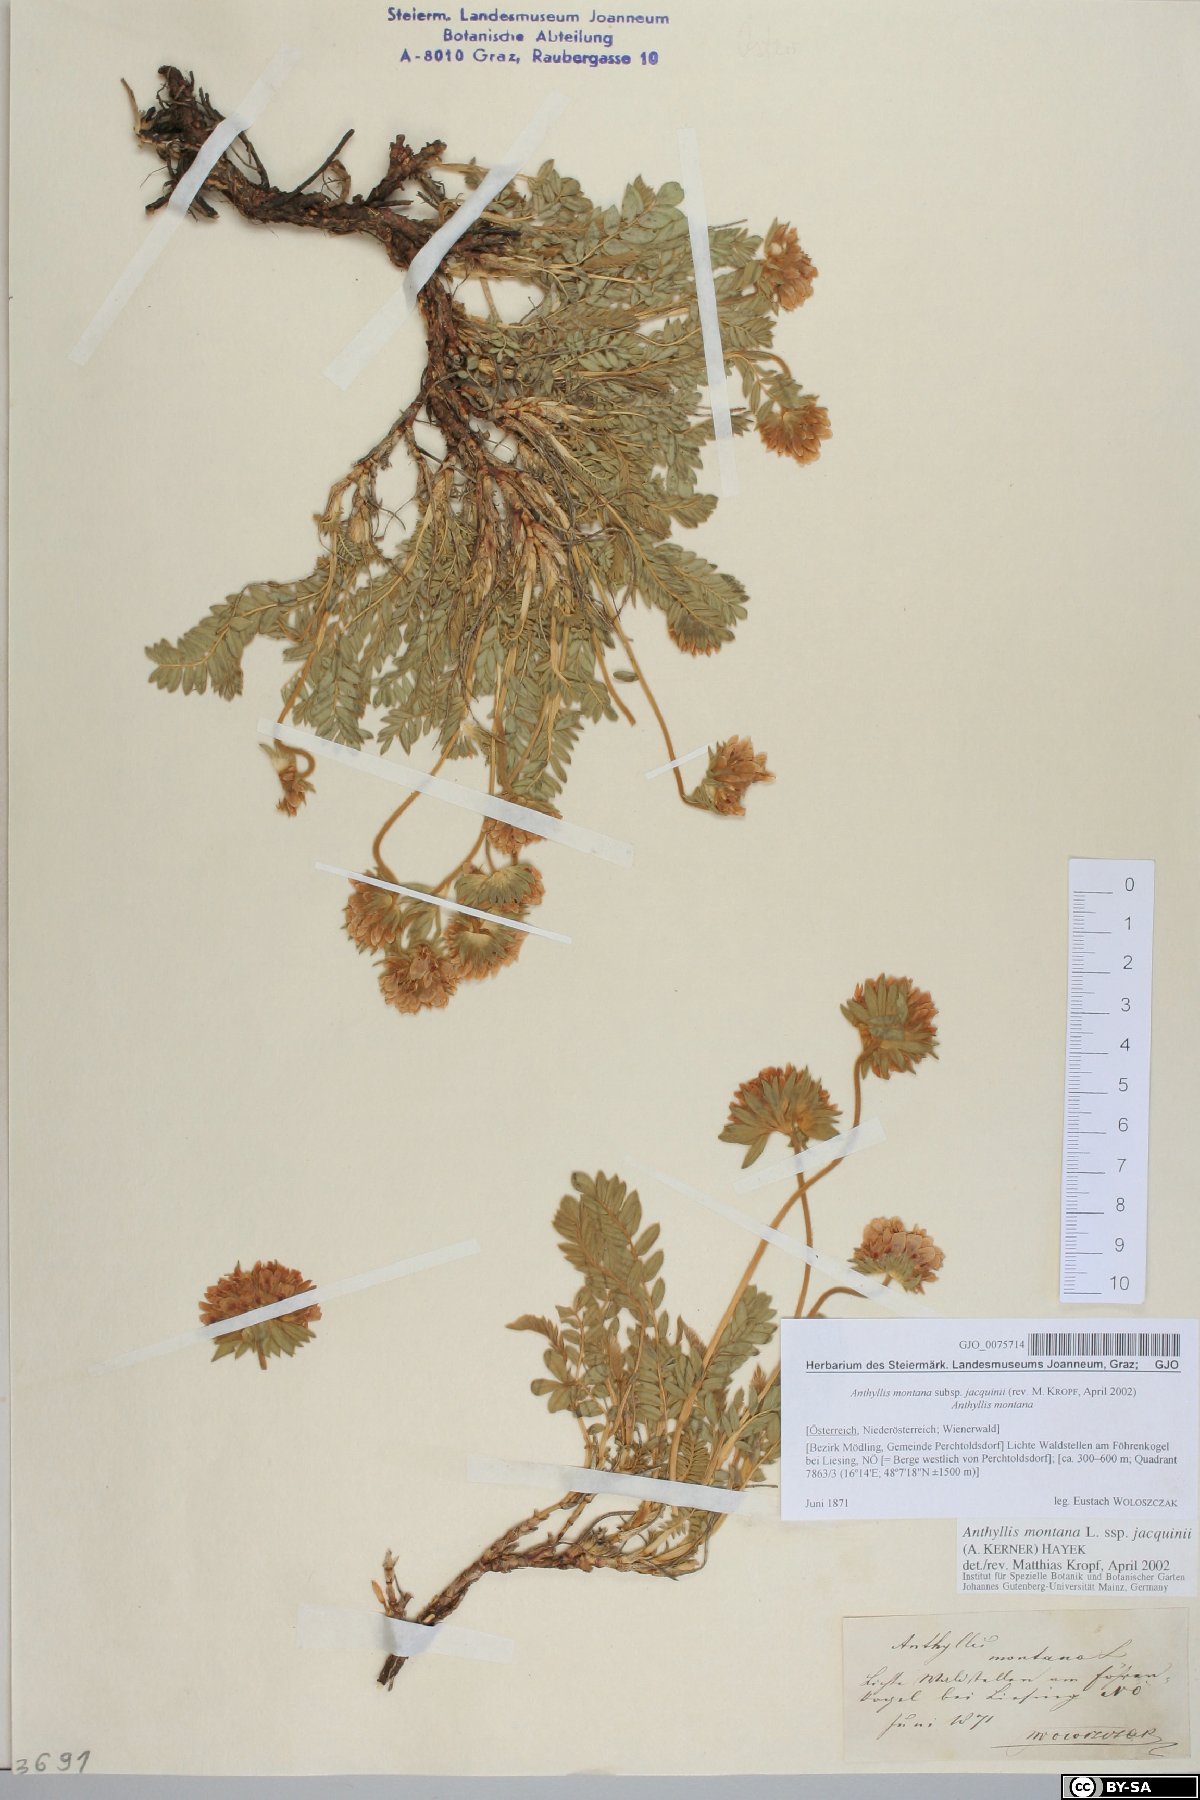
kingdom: Plantae
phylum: Tracheophyta
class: Magnoliopsida
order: Fabales
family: Fabaceae
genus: Anthyllis
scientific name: Anthyllis montana
